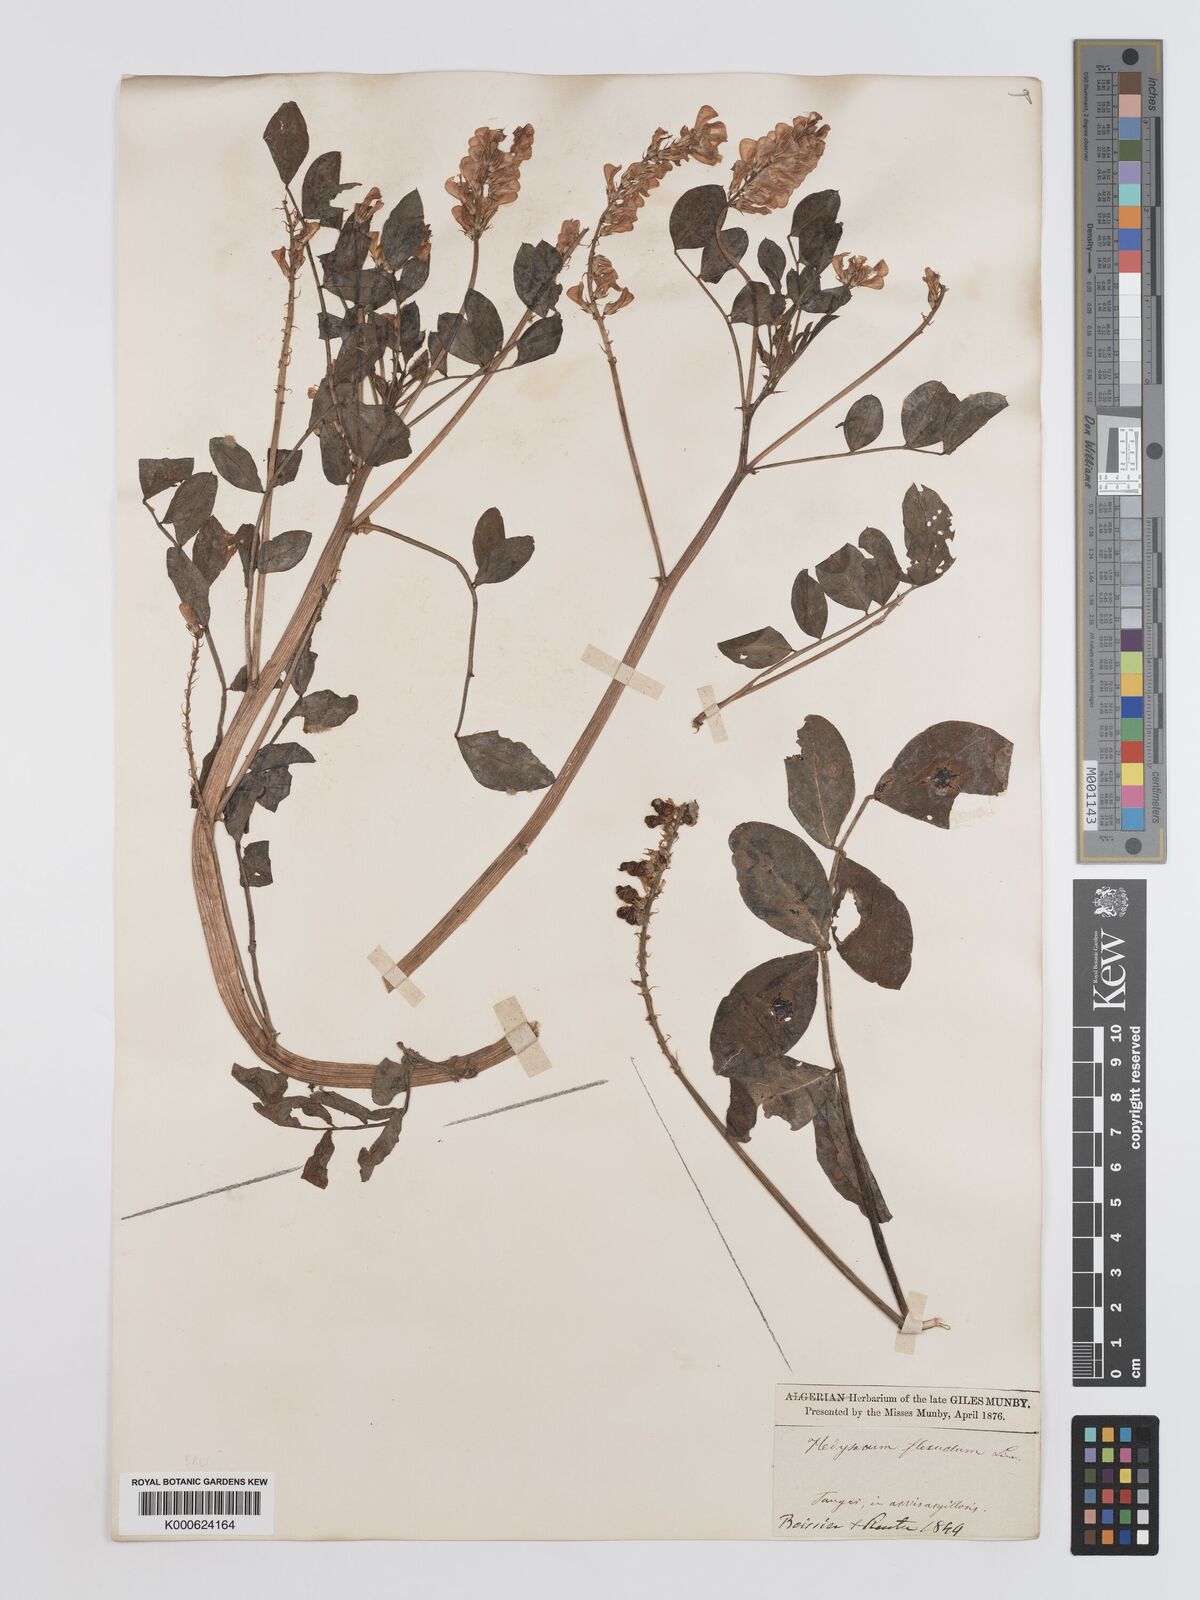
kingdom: Plantae
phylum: Tracheophyta
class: Magnoliopsida
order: Fabales
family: Fabaceae
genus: Sulla
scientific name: Sulla flexuosa
